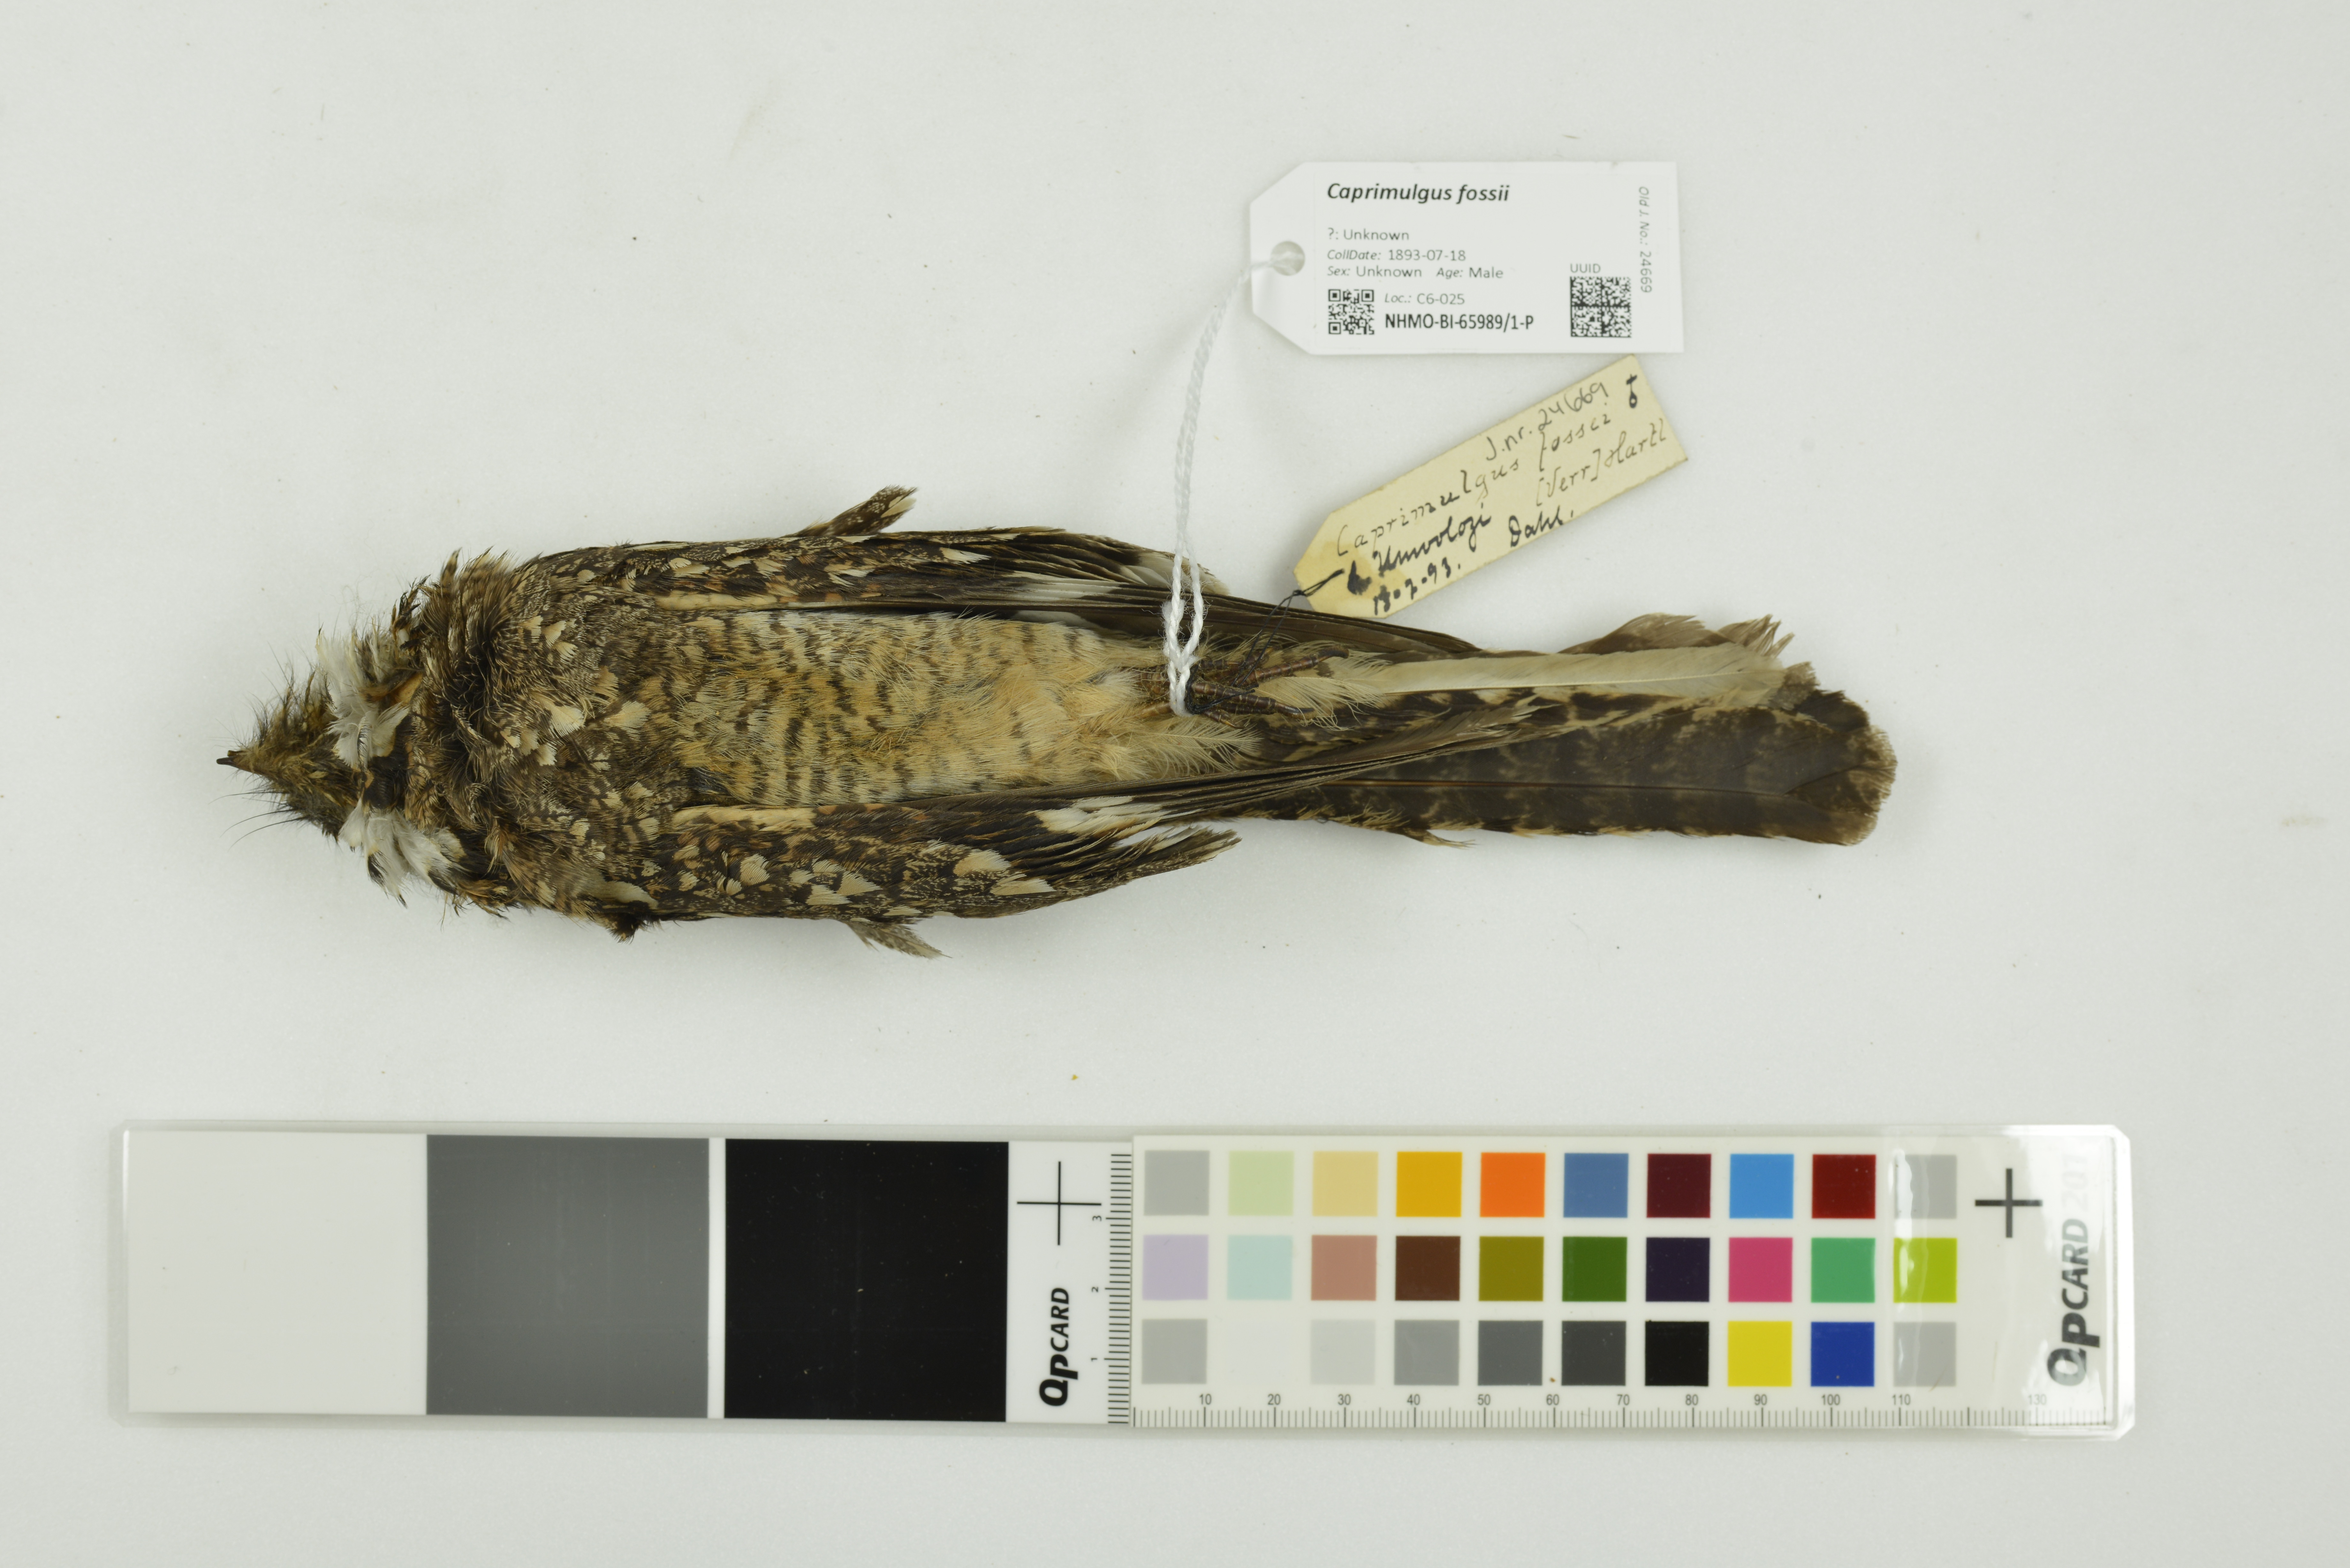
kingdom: Animalia
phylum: Chordata
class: Aves
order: Caprimulgiformes
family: Caprimulgidae
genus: Caprimulgus
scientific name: Caprimulgus fossii
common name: Square-tailed nightjar
